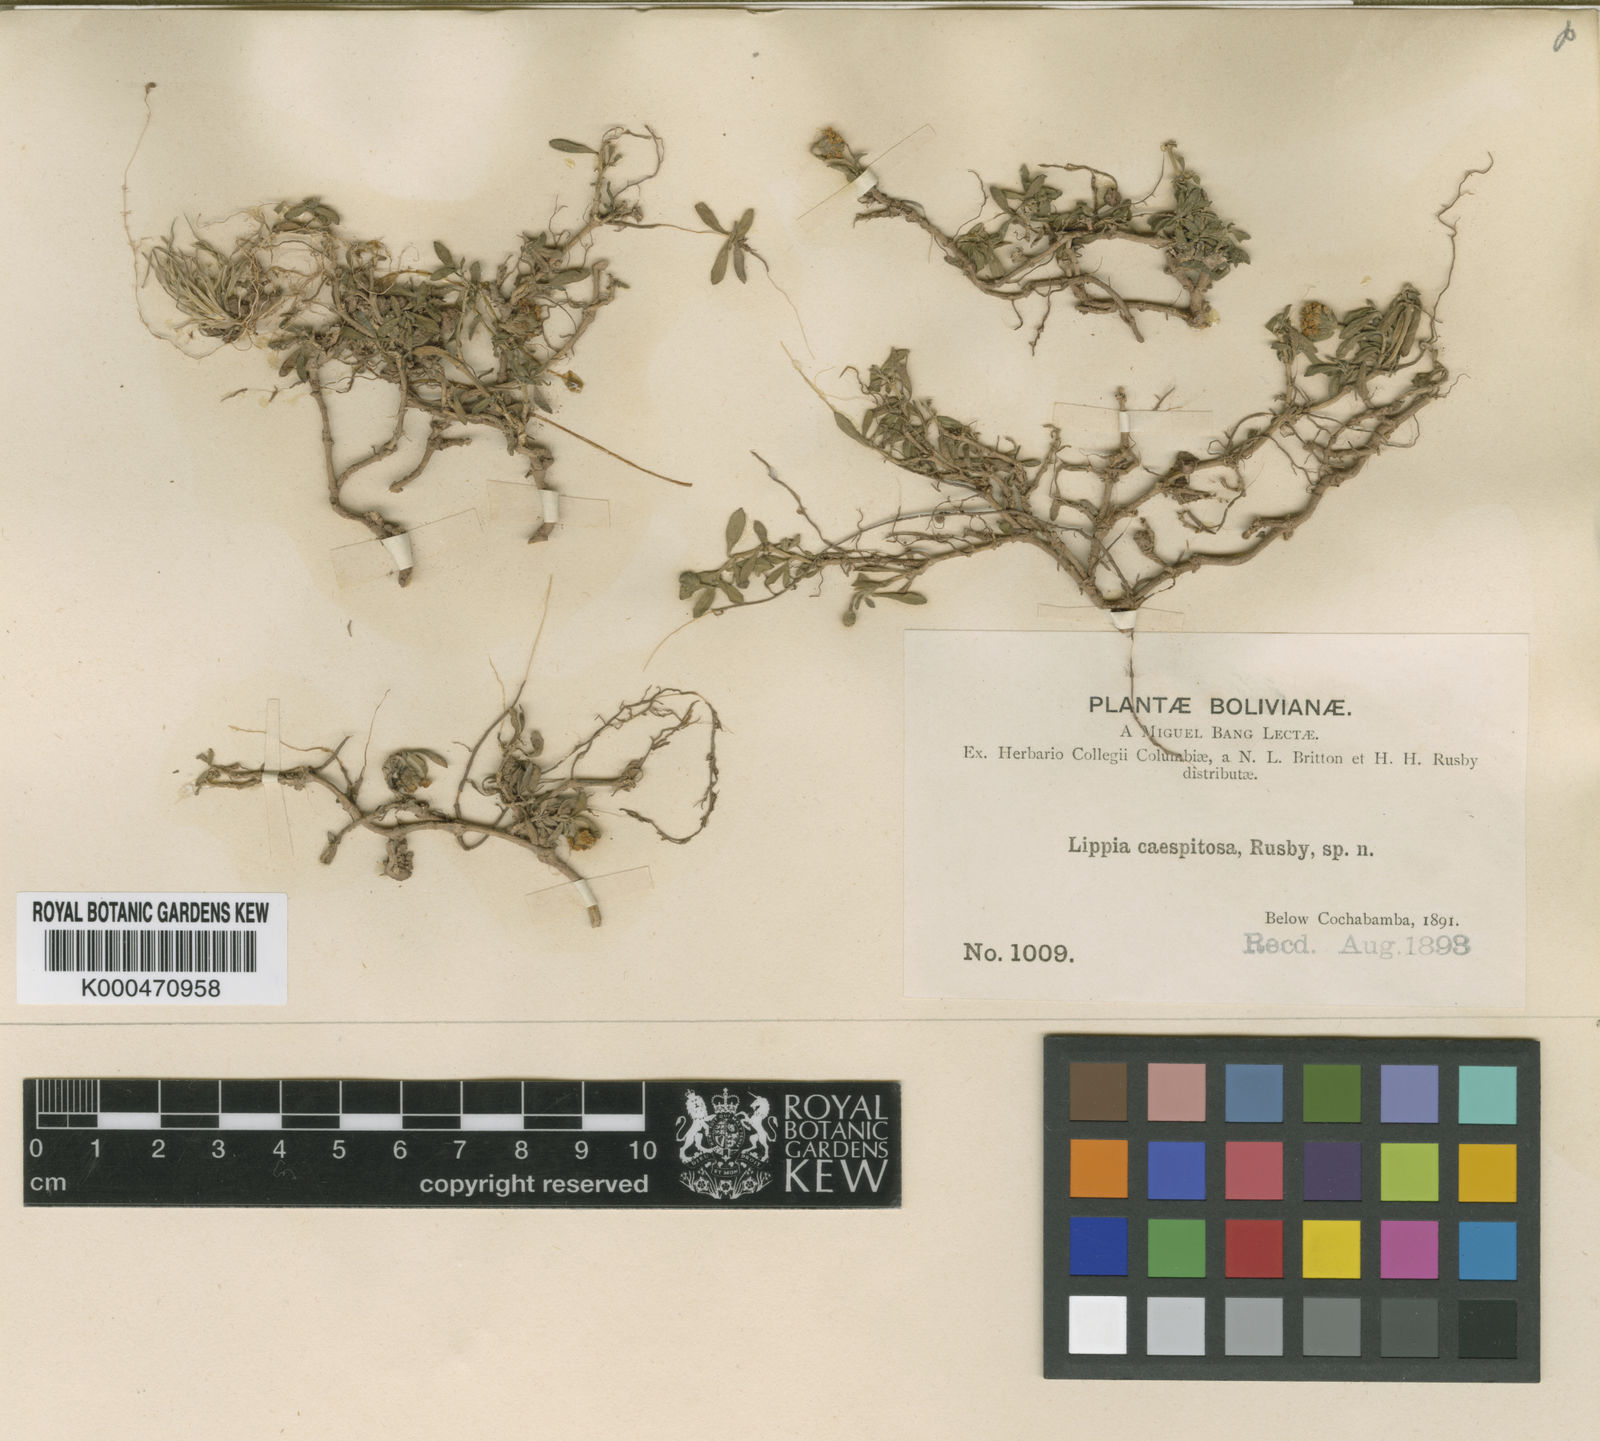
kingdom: Plantae
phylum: Tracheophyta
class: Magnoliopsida
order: Lamiales
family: Verbenaceae
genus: Phyla
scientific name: Phyla nodiflora
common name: Frogfruit
